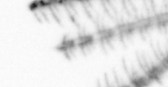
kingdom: Animalia
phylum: Arthropoda
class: Maxillopoda
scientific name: Maxillopoda
